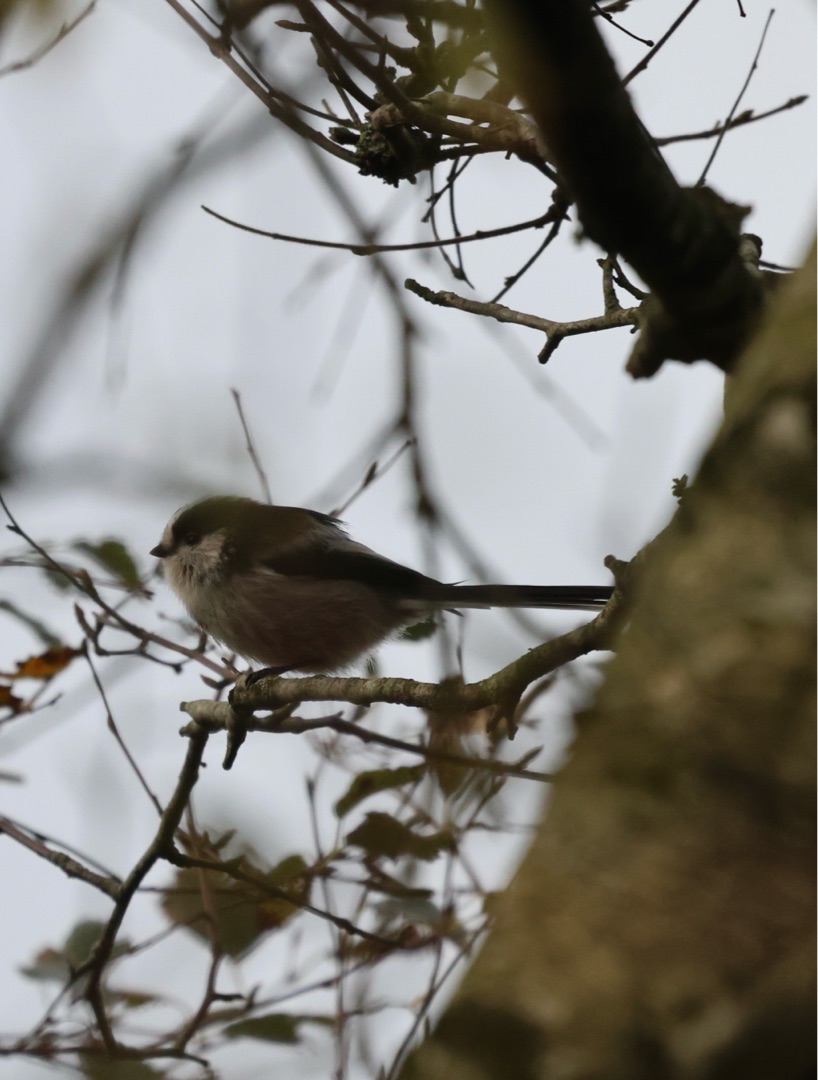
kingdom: Animalia
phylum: Chordata
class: Aves
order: Passeriformes
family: Aegithalidae
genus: Aegithalos
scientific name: Aegithalos caudatus
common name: Sydlig halemejse
